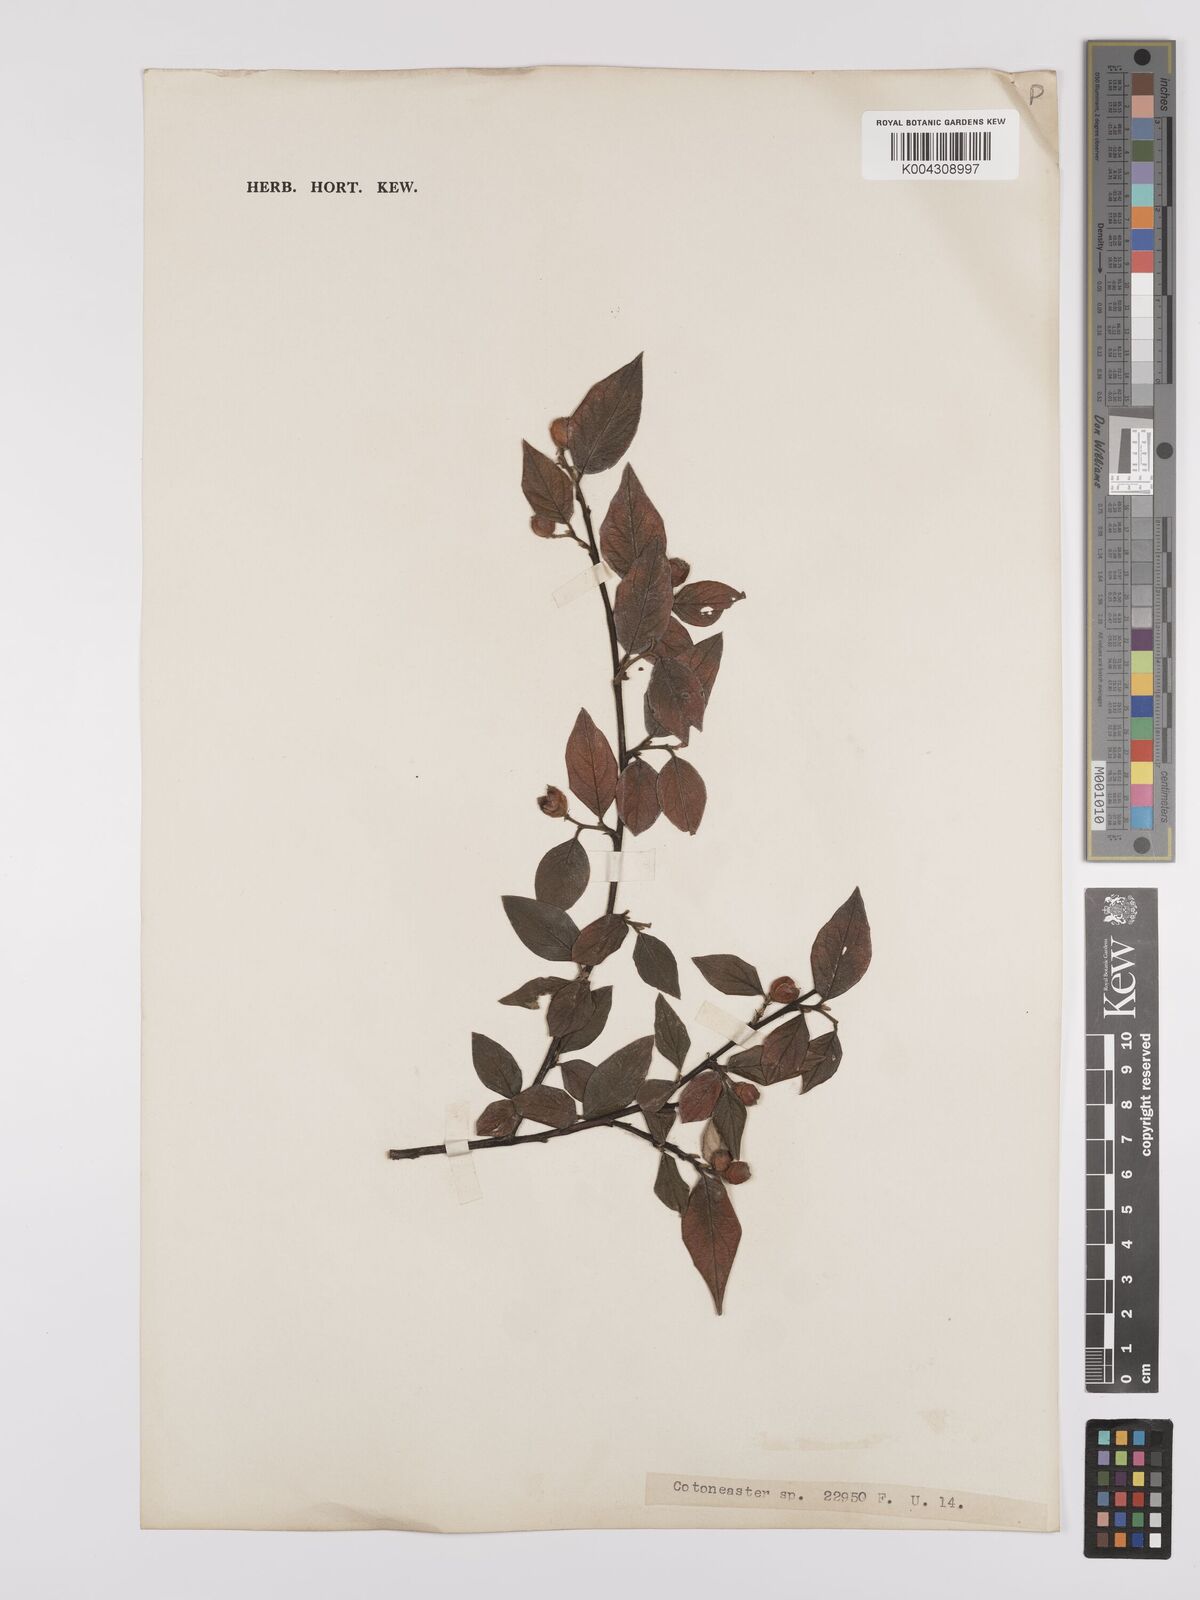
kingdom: Plantae
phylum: Tracheophyta
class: Magnoliopsida
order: Rosales
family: Rosaceae
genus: Cotoneaster
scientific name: Cotoneaster
